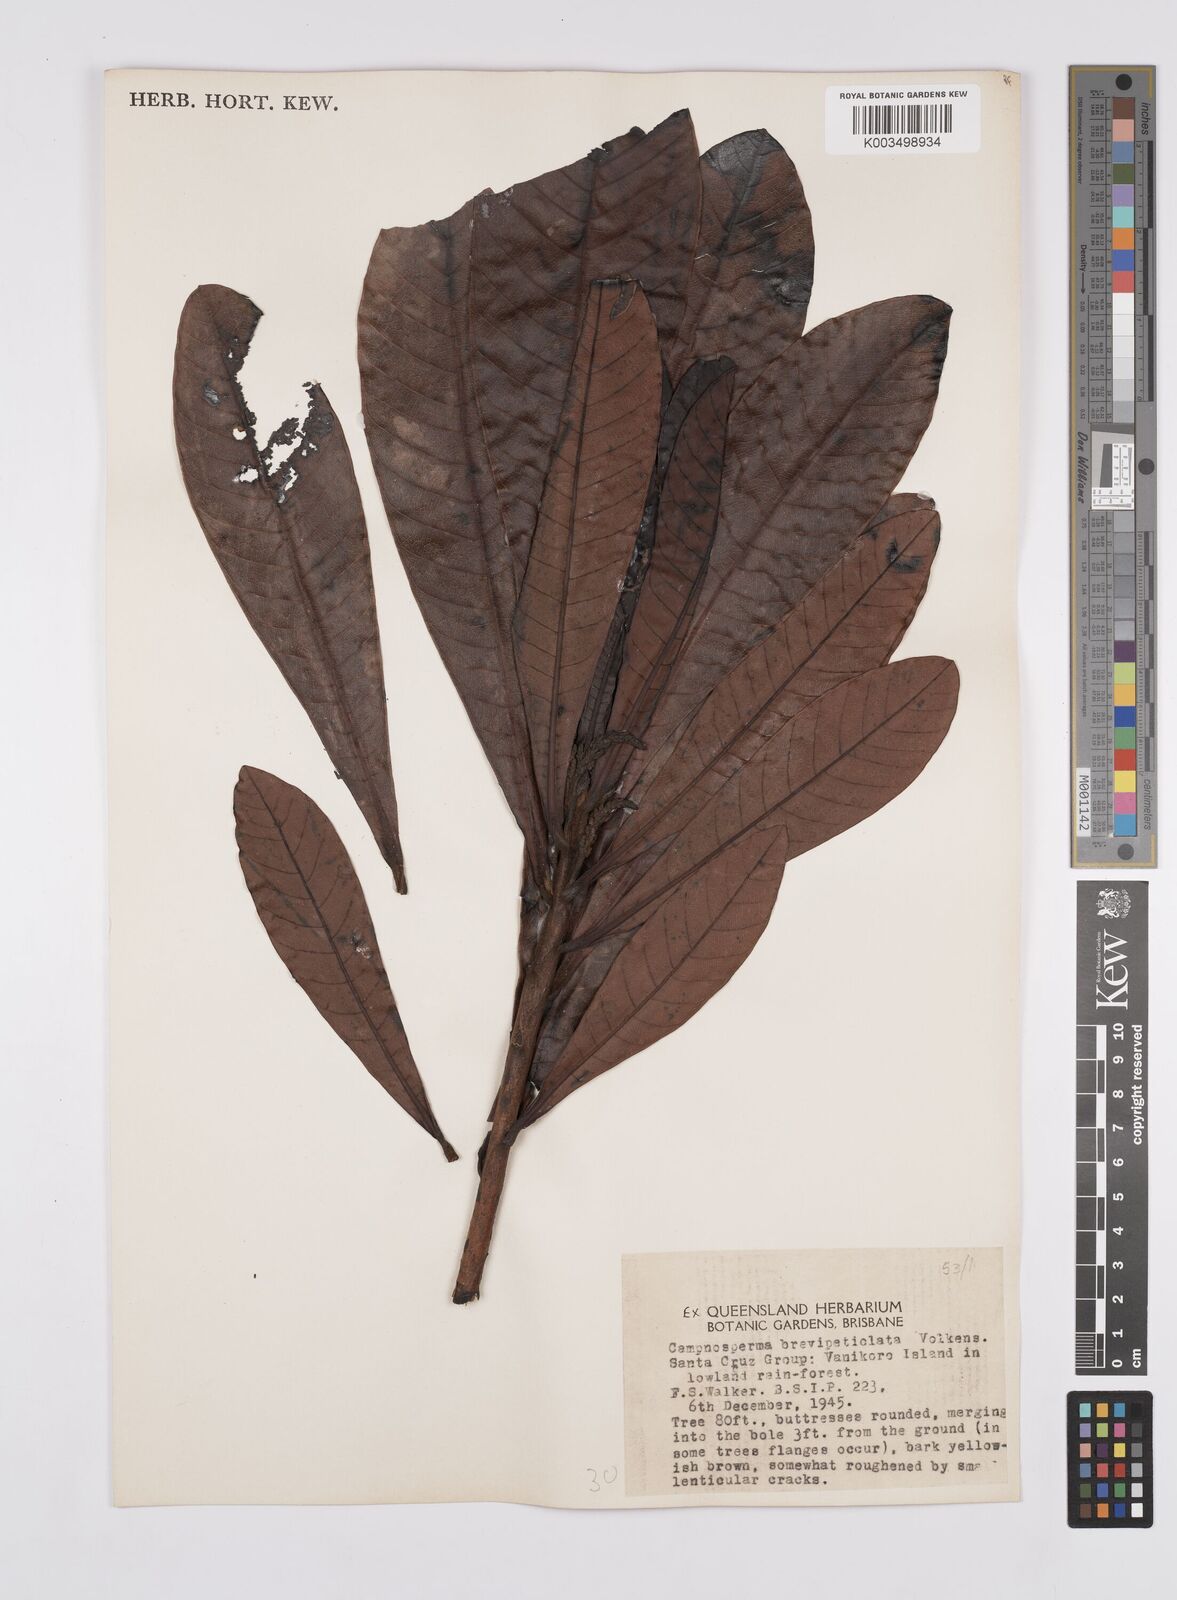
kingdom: Plantae
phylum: Tracheophyta
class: Magnoliopsida
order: Sapindales
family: Anacardiaceae
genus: Campnosperma
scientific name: Campnosperma brevipetiolatum
